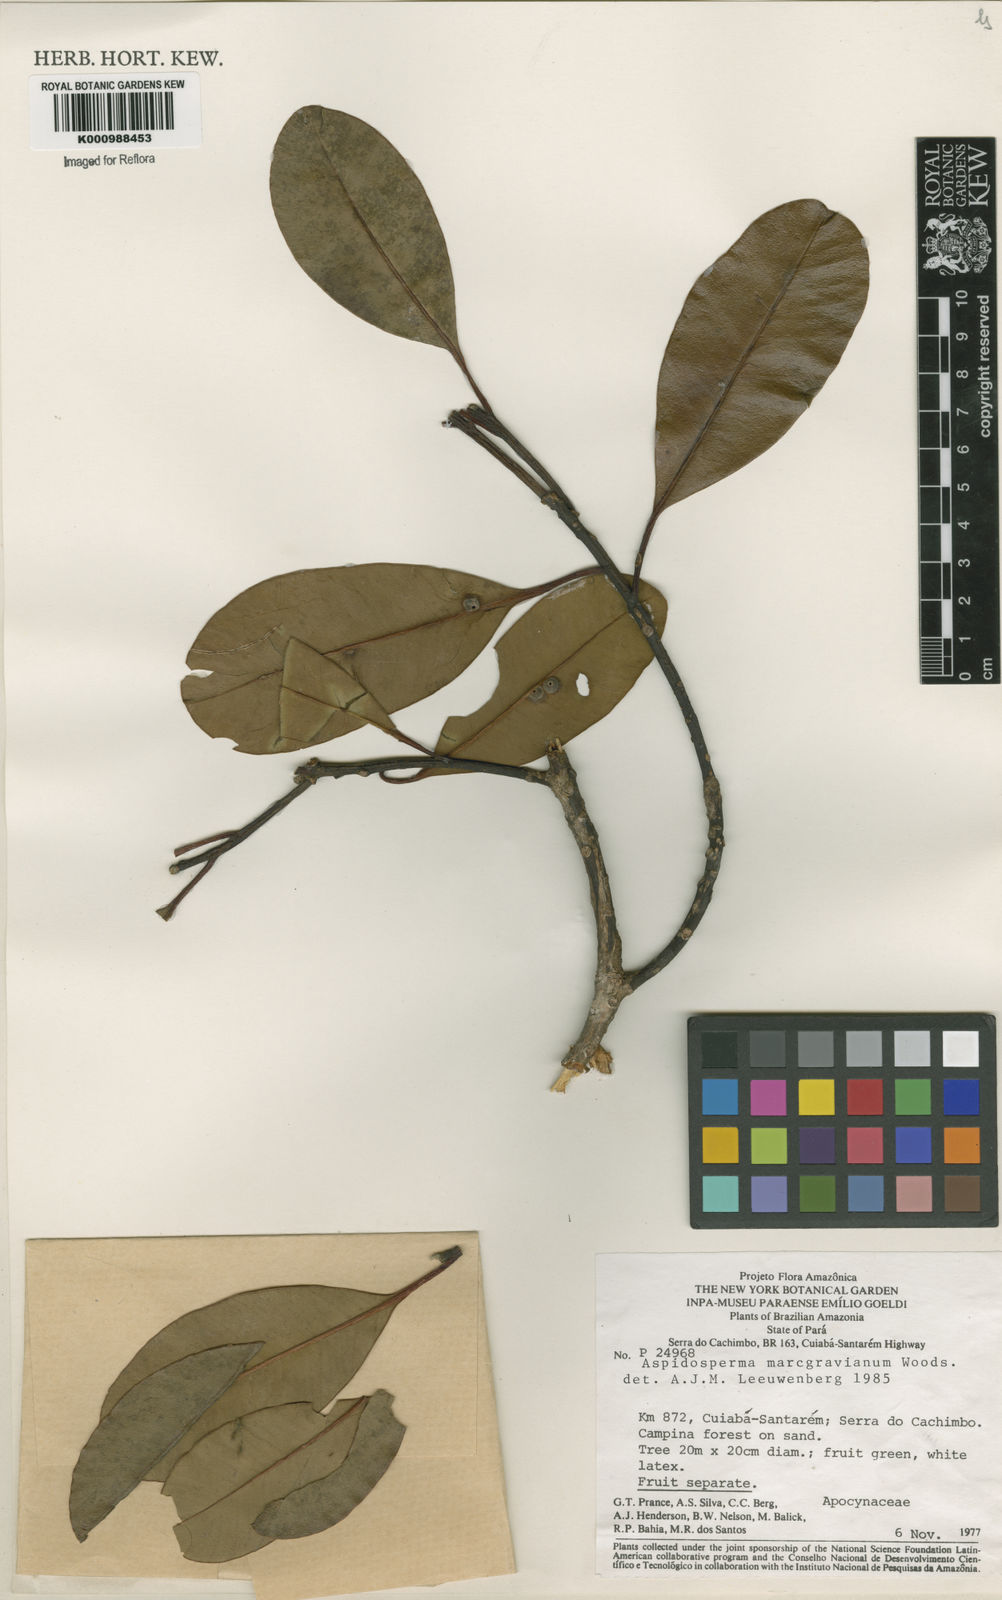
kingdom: Plantae
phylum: Tracheophyta
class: Magnoliopsida
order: Gentianales
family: Apocynaceae
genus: Aspidosperma
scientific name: Aspidosperma excelsum
